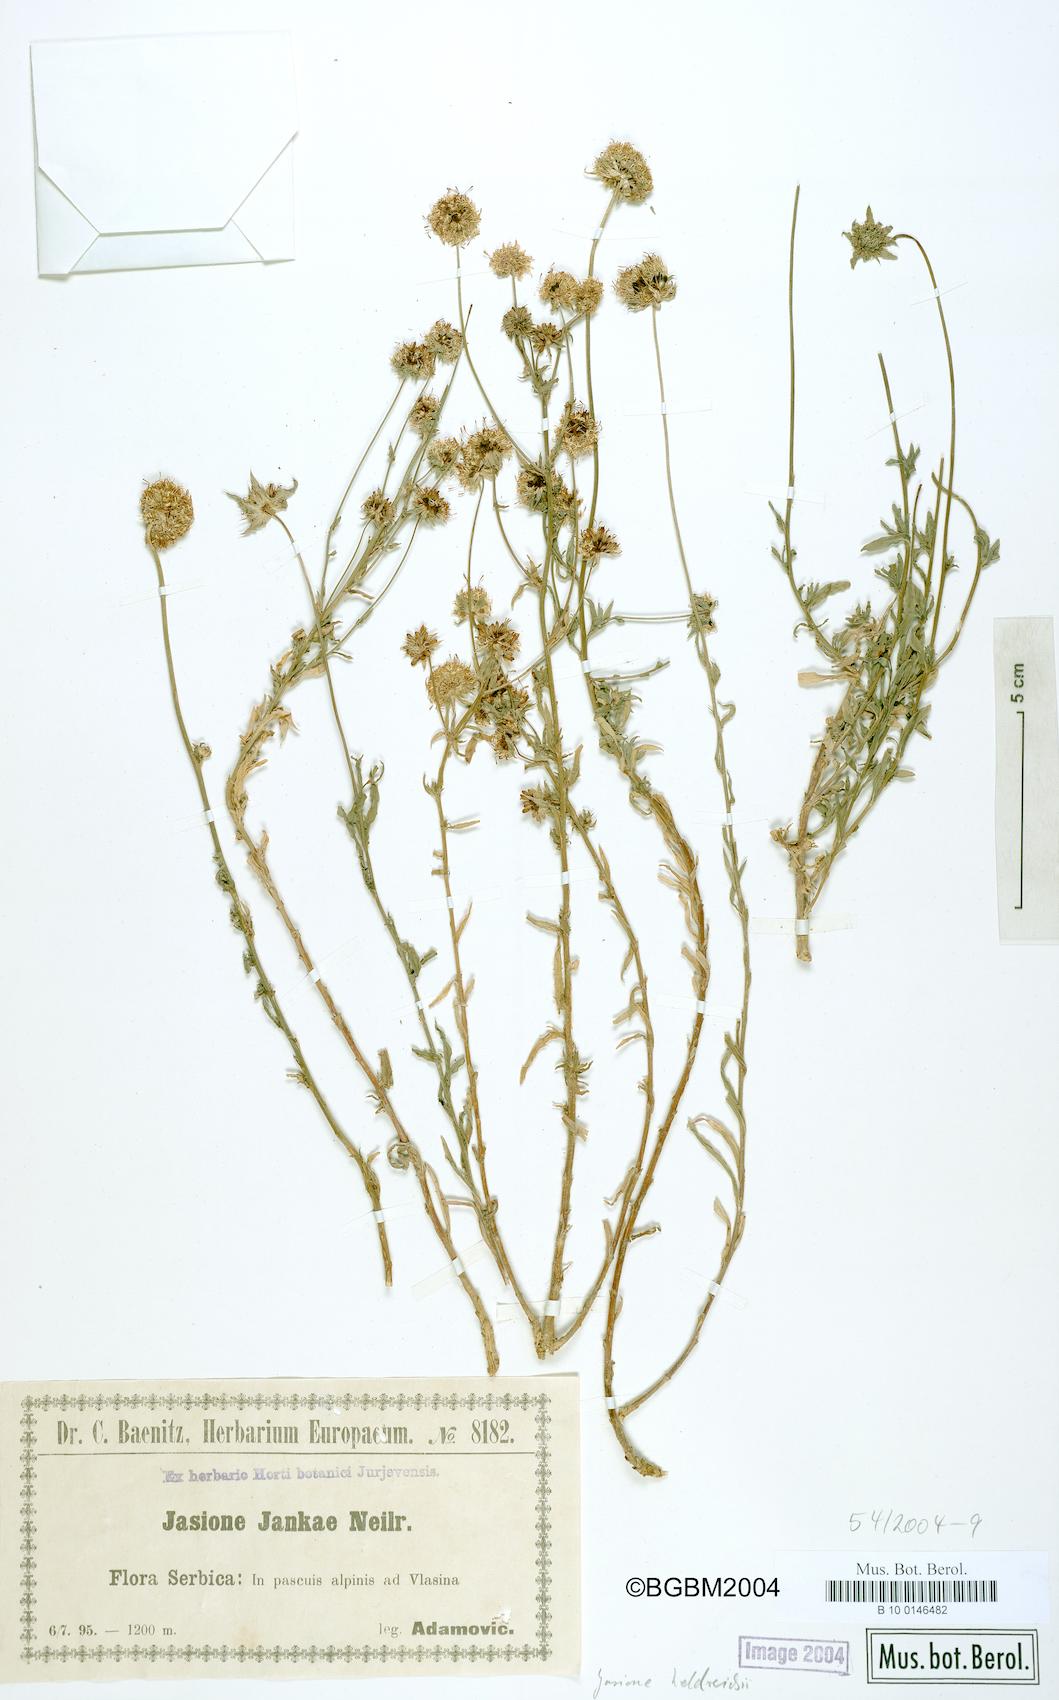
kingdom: Plantae
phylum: Tracheophyta
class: Magnoliopsida
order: Asterales
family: Campanulaceae
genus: Jasione
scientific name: Jasione heldreichii
